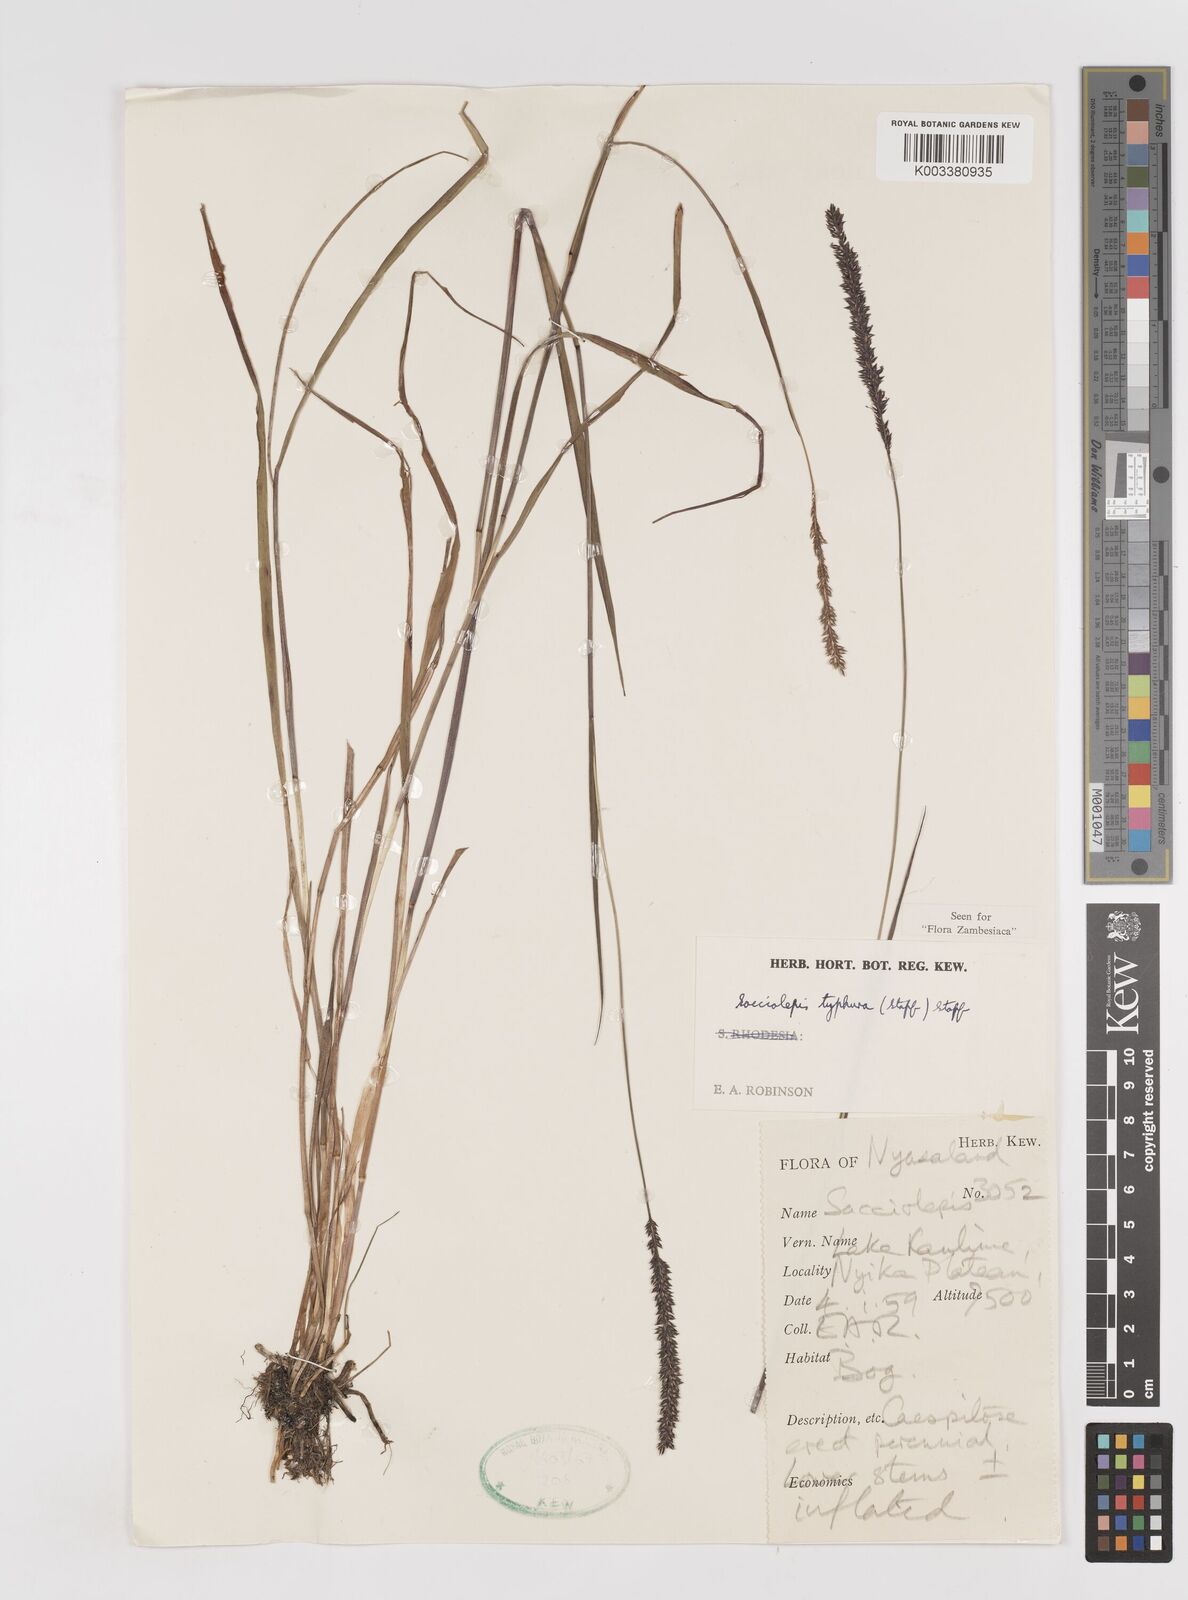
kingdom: Plantae
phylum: Tracheophyta
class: Liliopsida
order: Poales
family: Poaceae
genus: Sacciolepis
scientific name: Sacciolepis typhura
